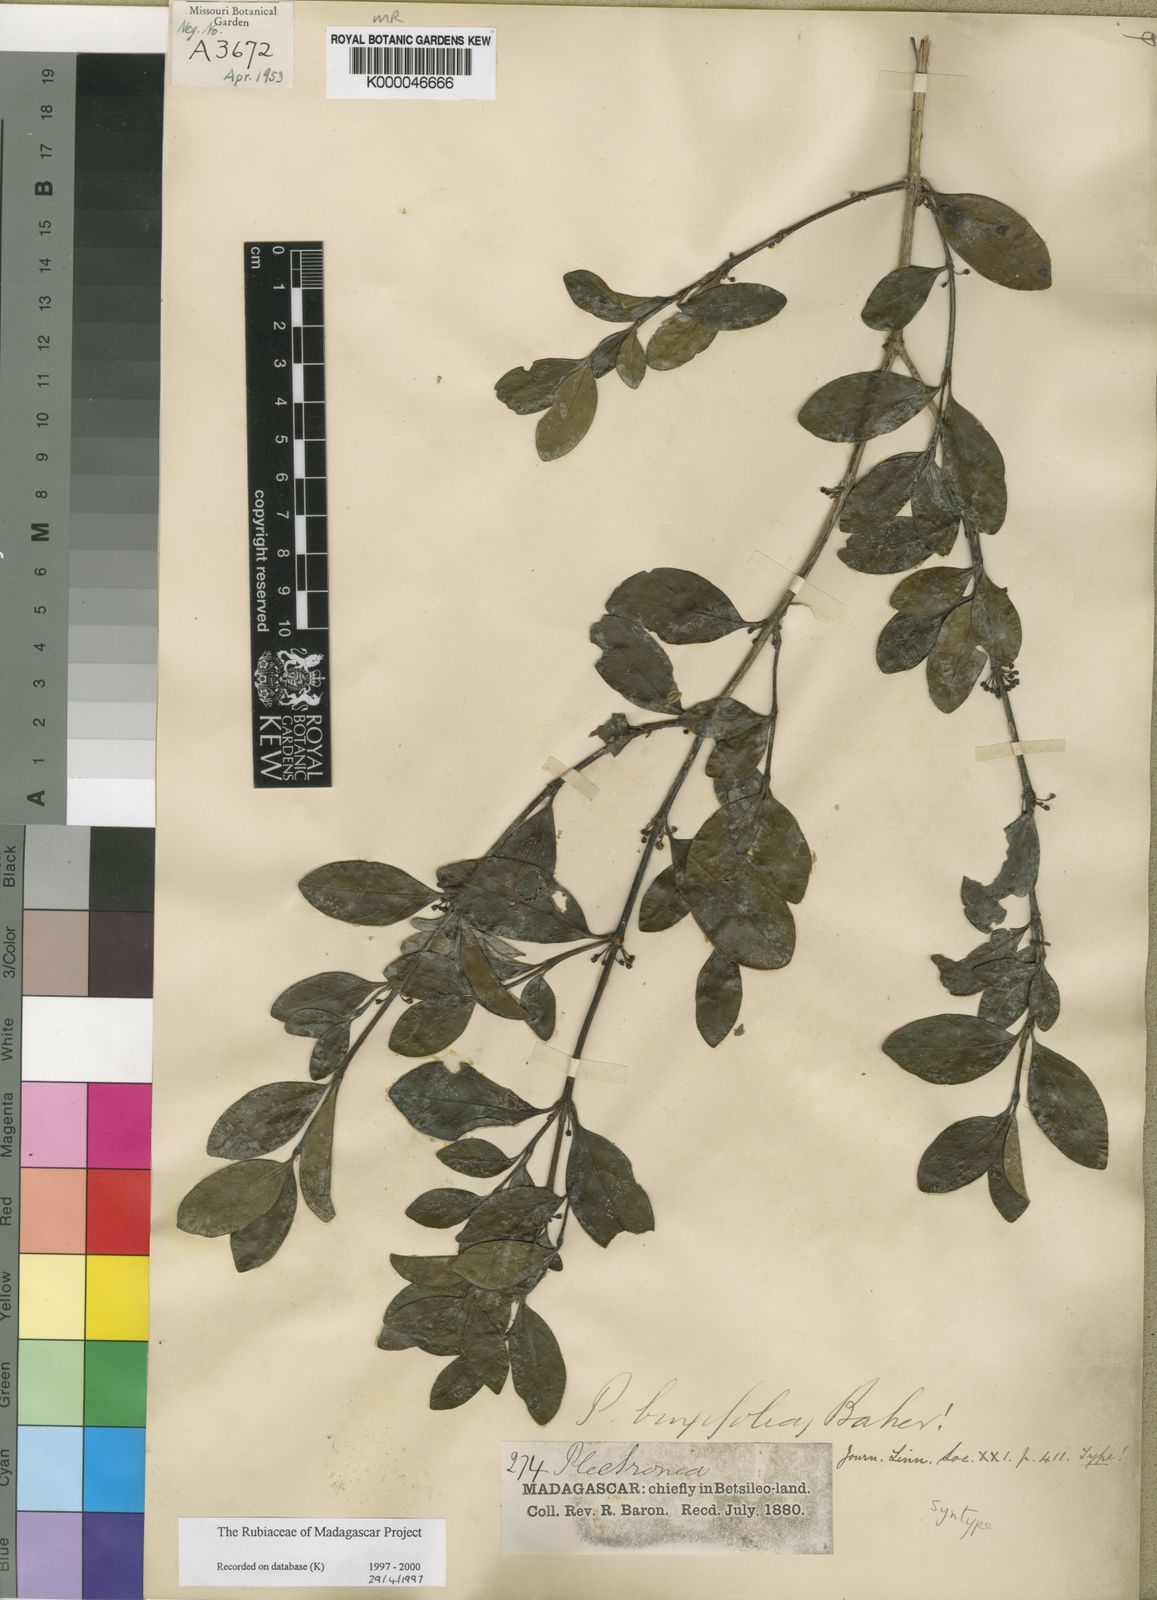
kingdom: Plantae
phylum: Tracheophyta
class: Magnoliopsida
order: Gentianales
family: Rubiaceae
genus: Peponidium
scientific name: Peponidium buxifolium
